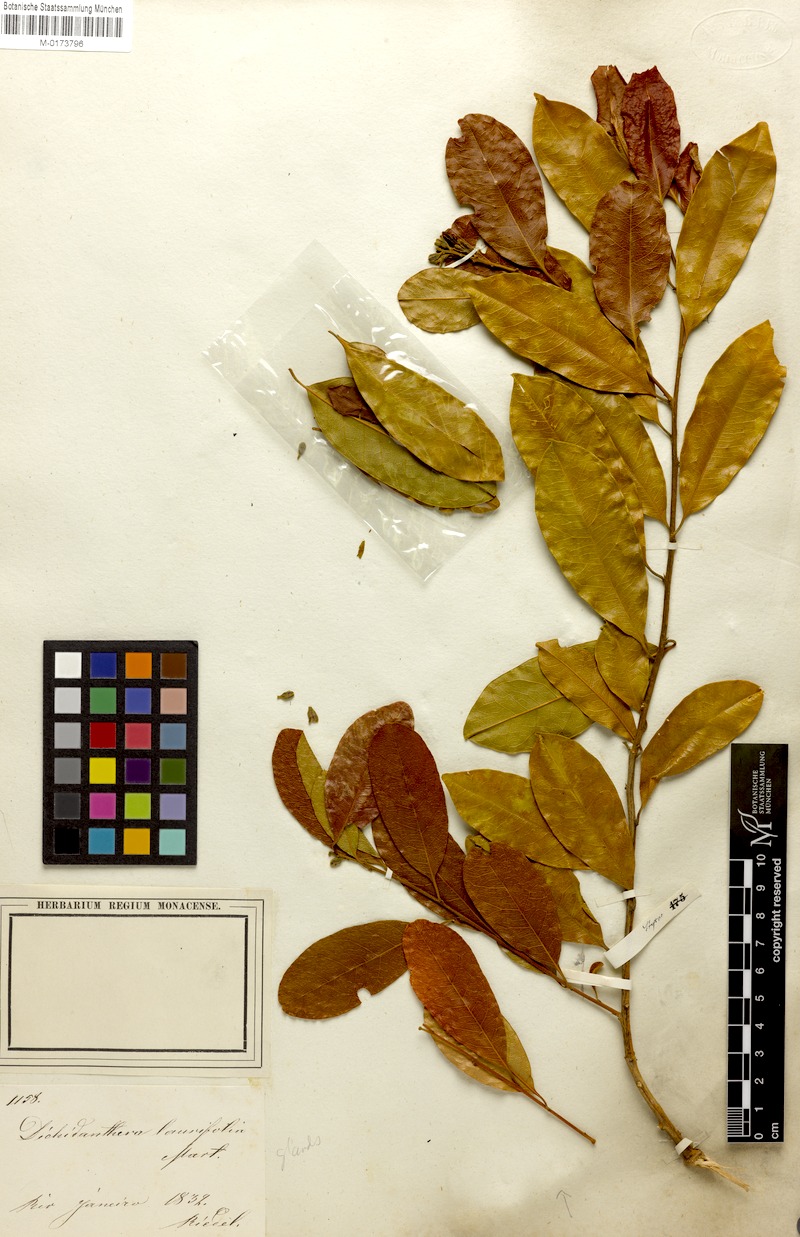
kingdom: Plantae
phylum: Tracheophyta
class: Magnoliopsida
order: Fabales
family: Polygalaceae
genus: Diclidanthera
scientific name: Diclidanthera laurifolia
